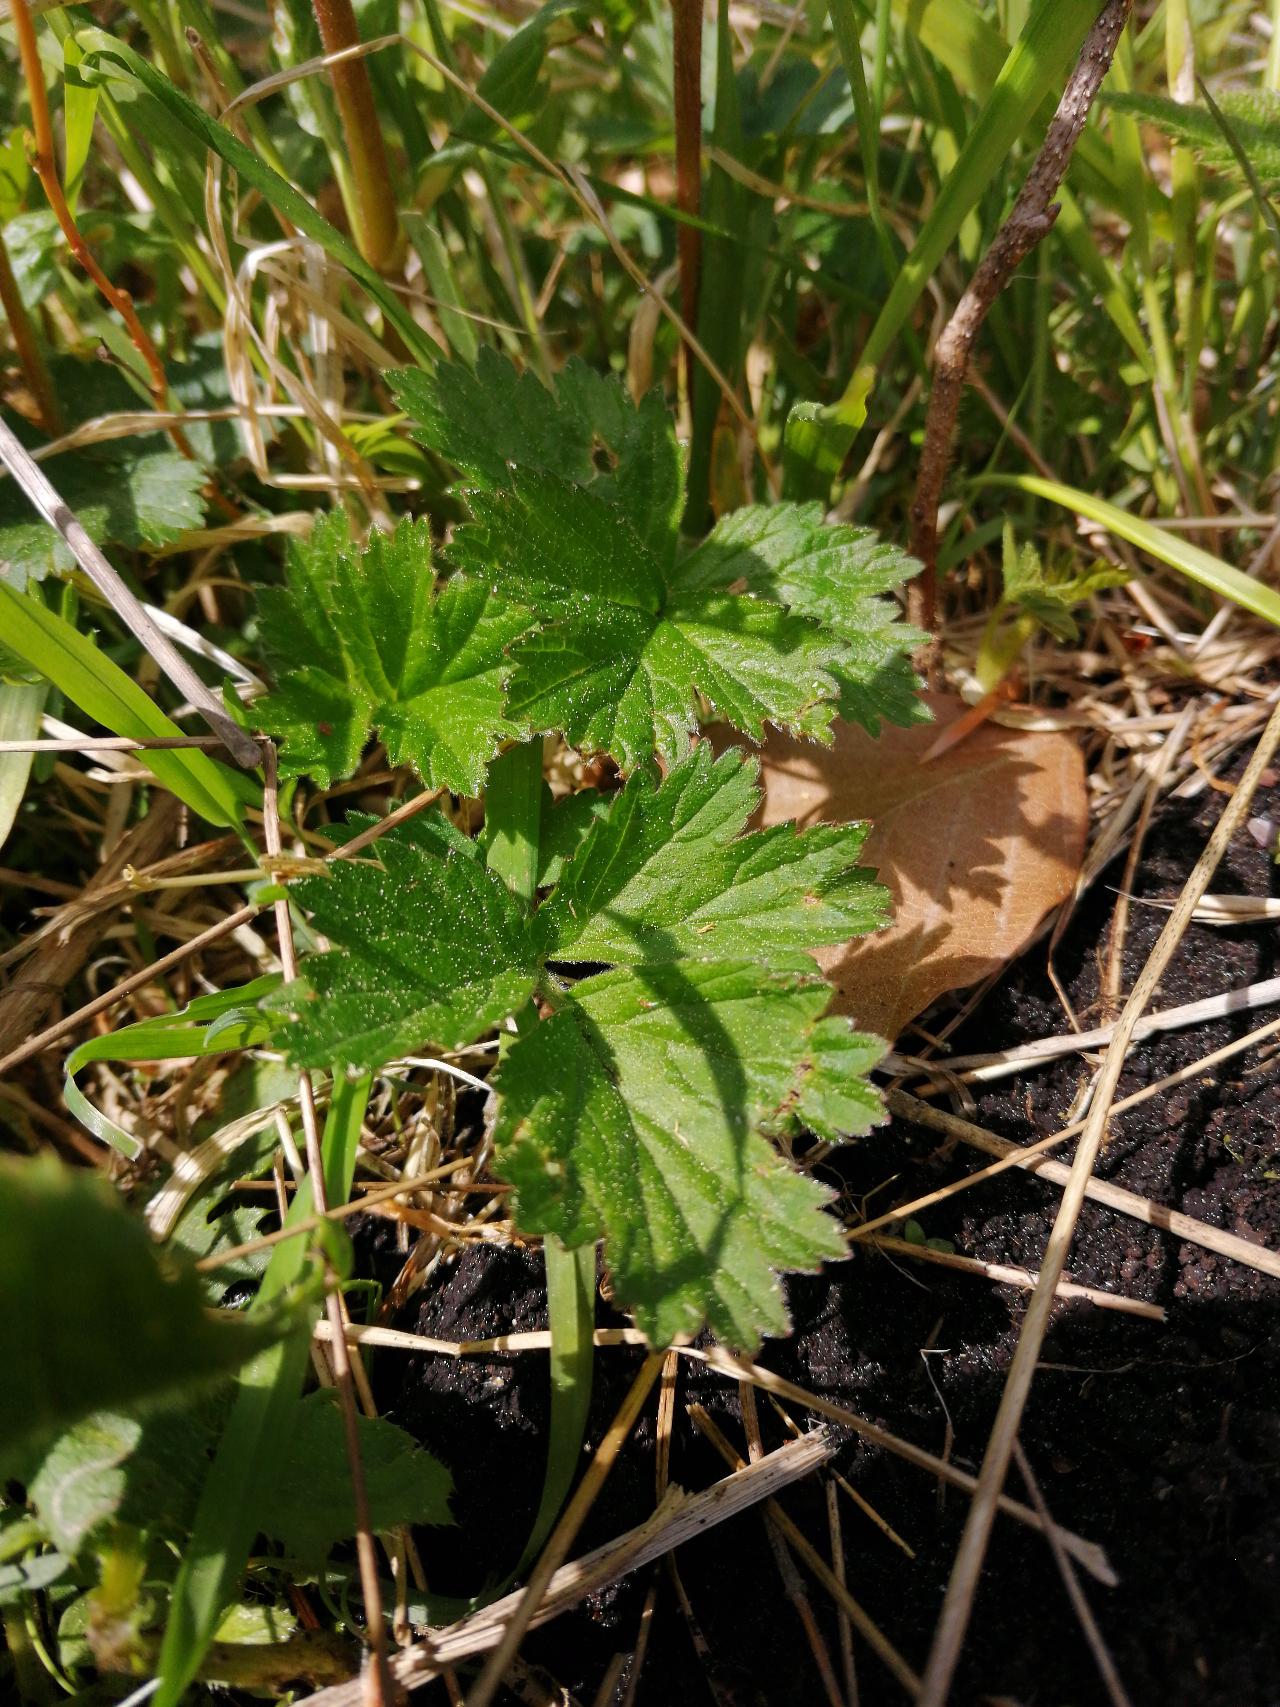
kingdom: Plantae
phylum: Tracheophyta
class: Magnoliopsida
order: Rosales
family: Rosaceae
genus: Geum
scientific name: Geum rivale
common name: Eng-nellikerod
